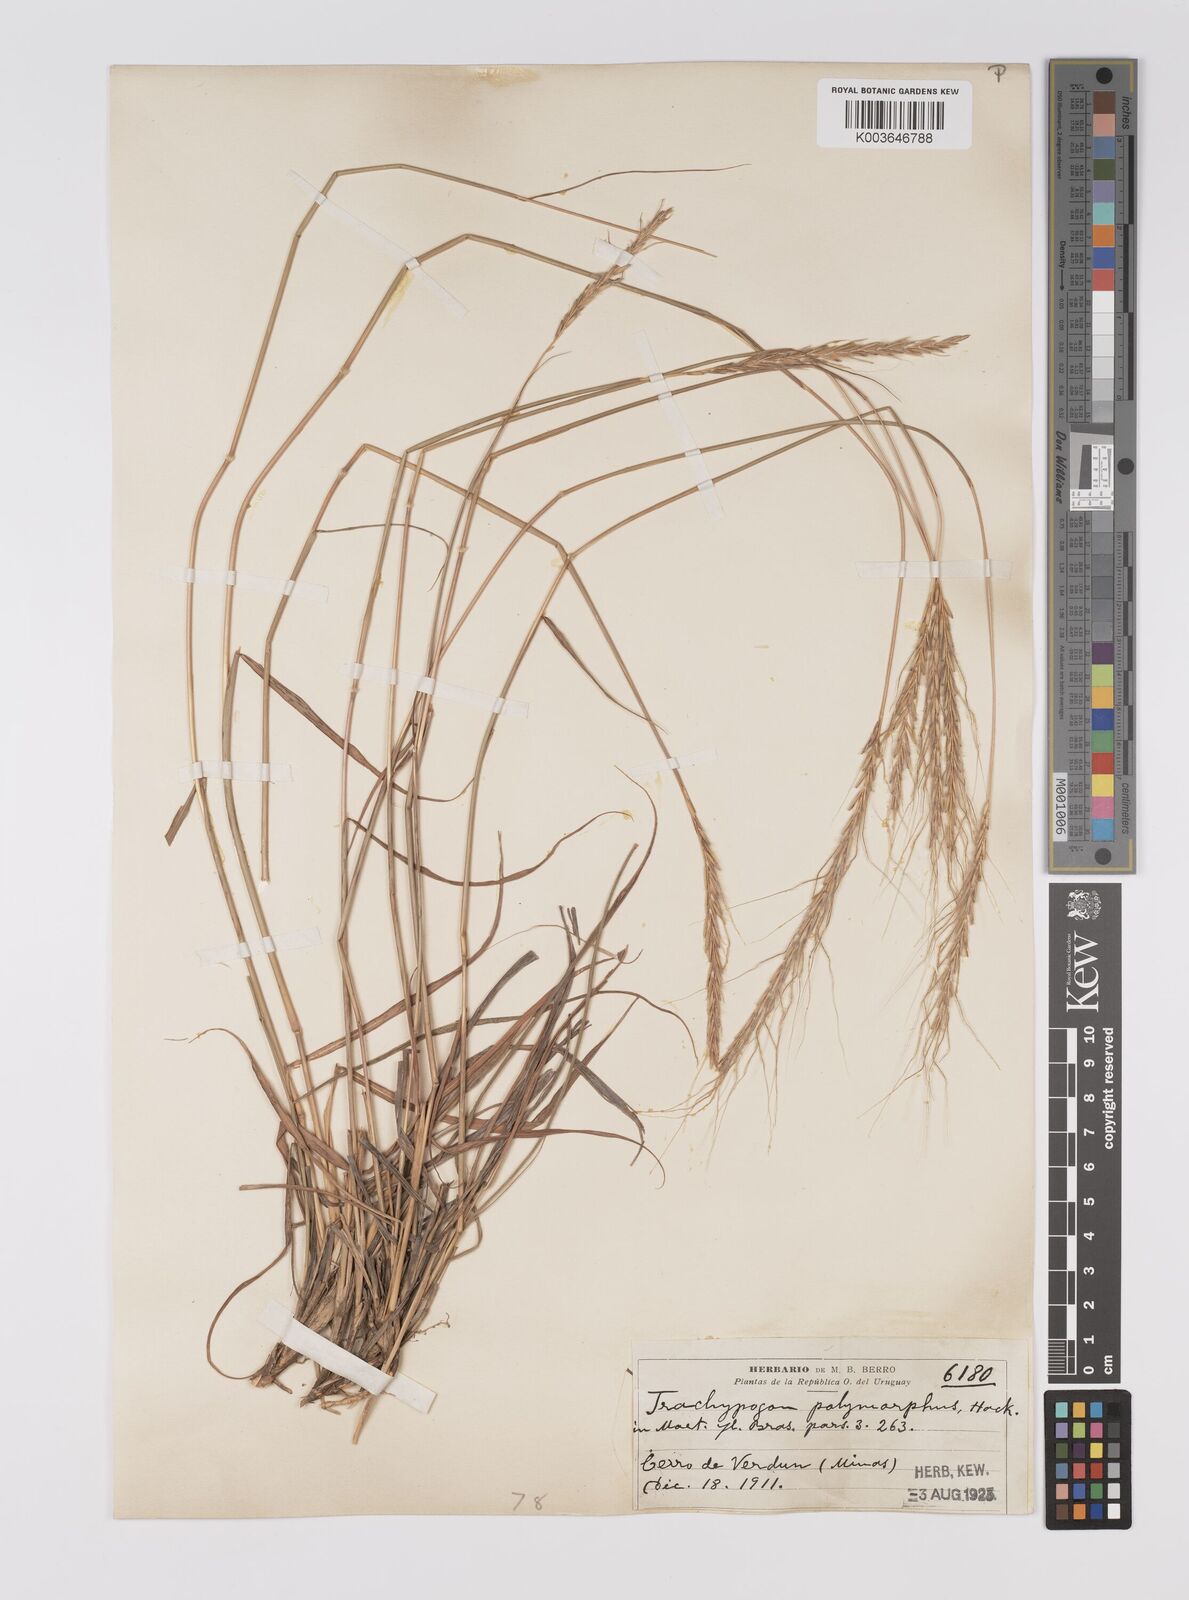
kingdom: Plantae
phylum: Tracheophyta
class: Liliopsida
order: Poales
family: Poaceae
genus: Trachypogon
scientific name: Trachypogon spicatus
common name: Crinkle-awn
